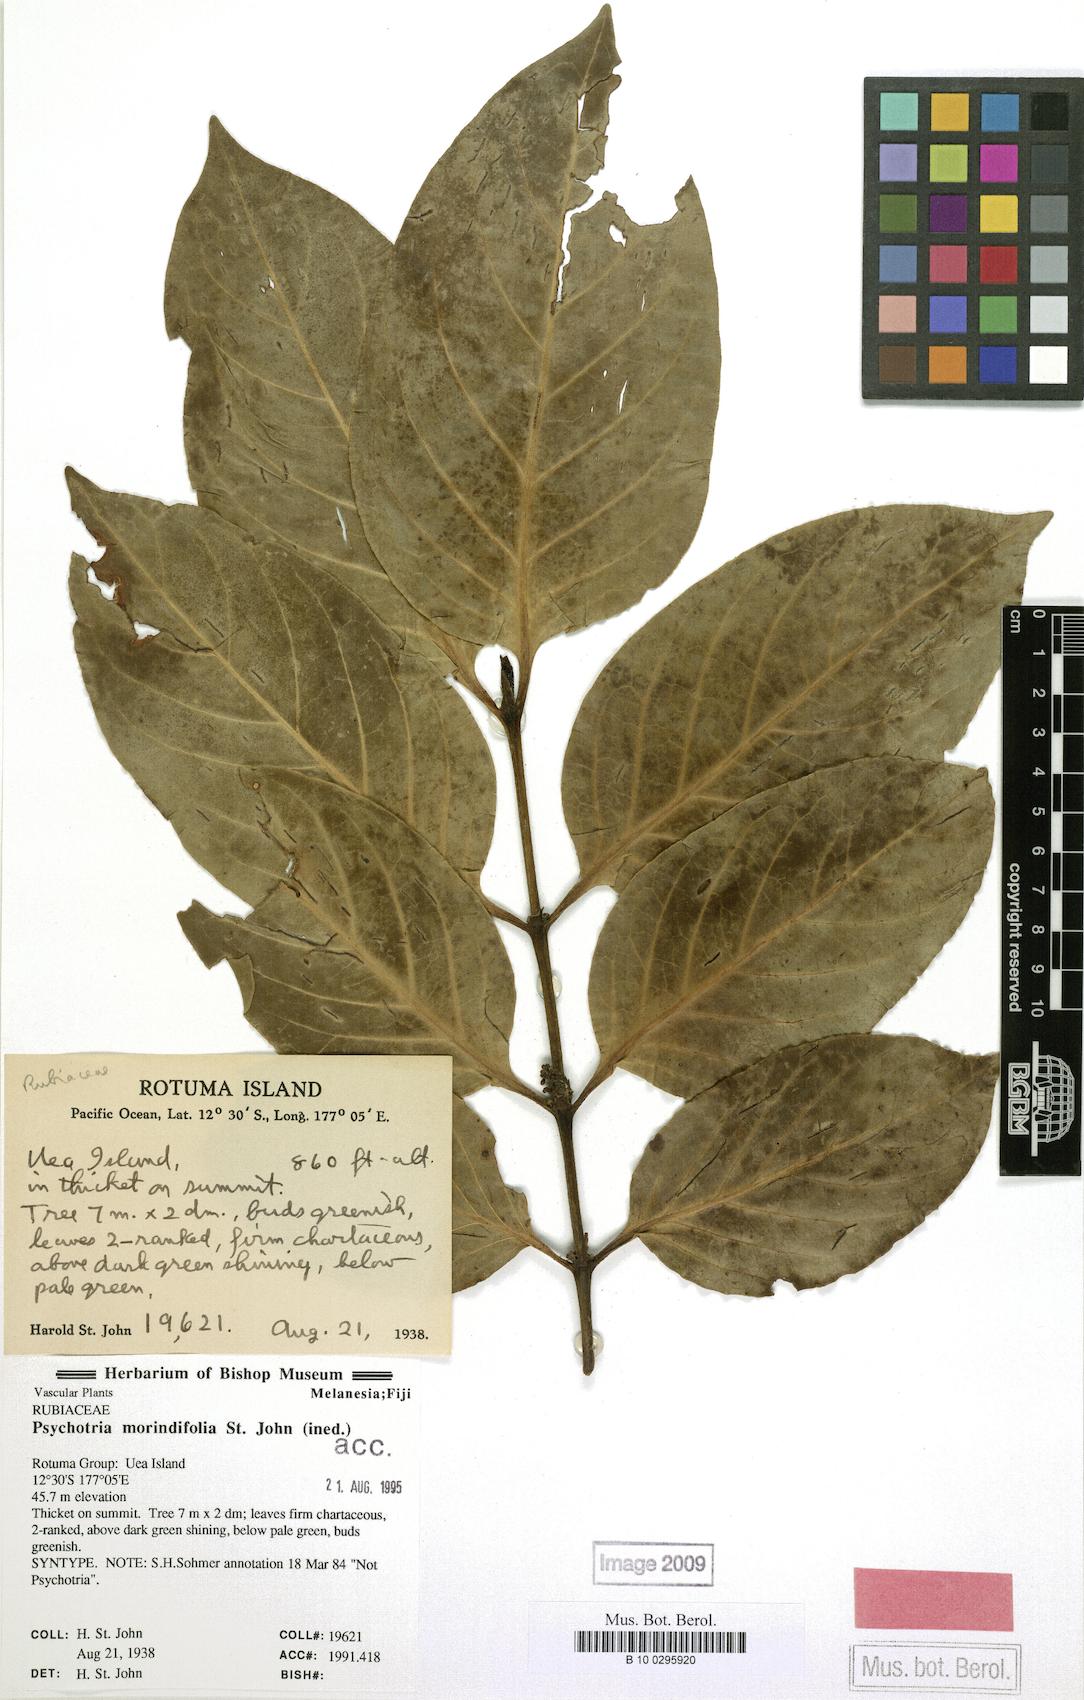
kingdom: Plantae
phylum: Tracheophyta
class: Magnoliopsida
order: Gentianales
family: Rubiaceae
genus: Psychotria
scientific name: Psychotria morindiflora
